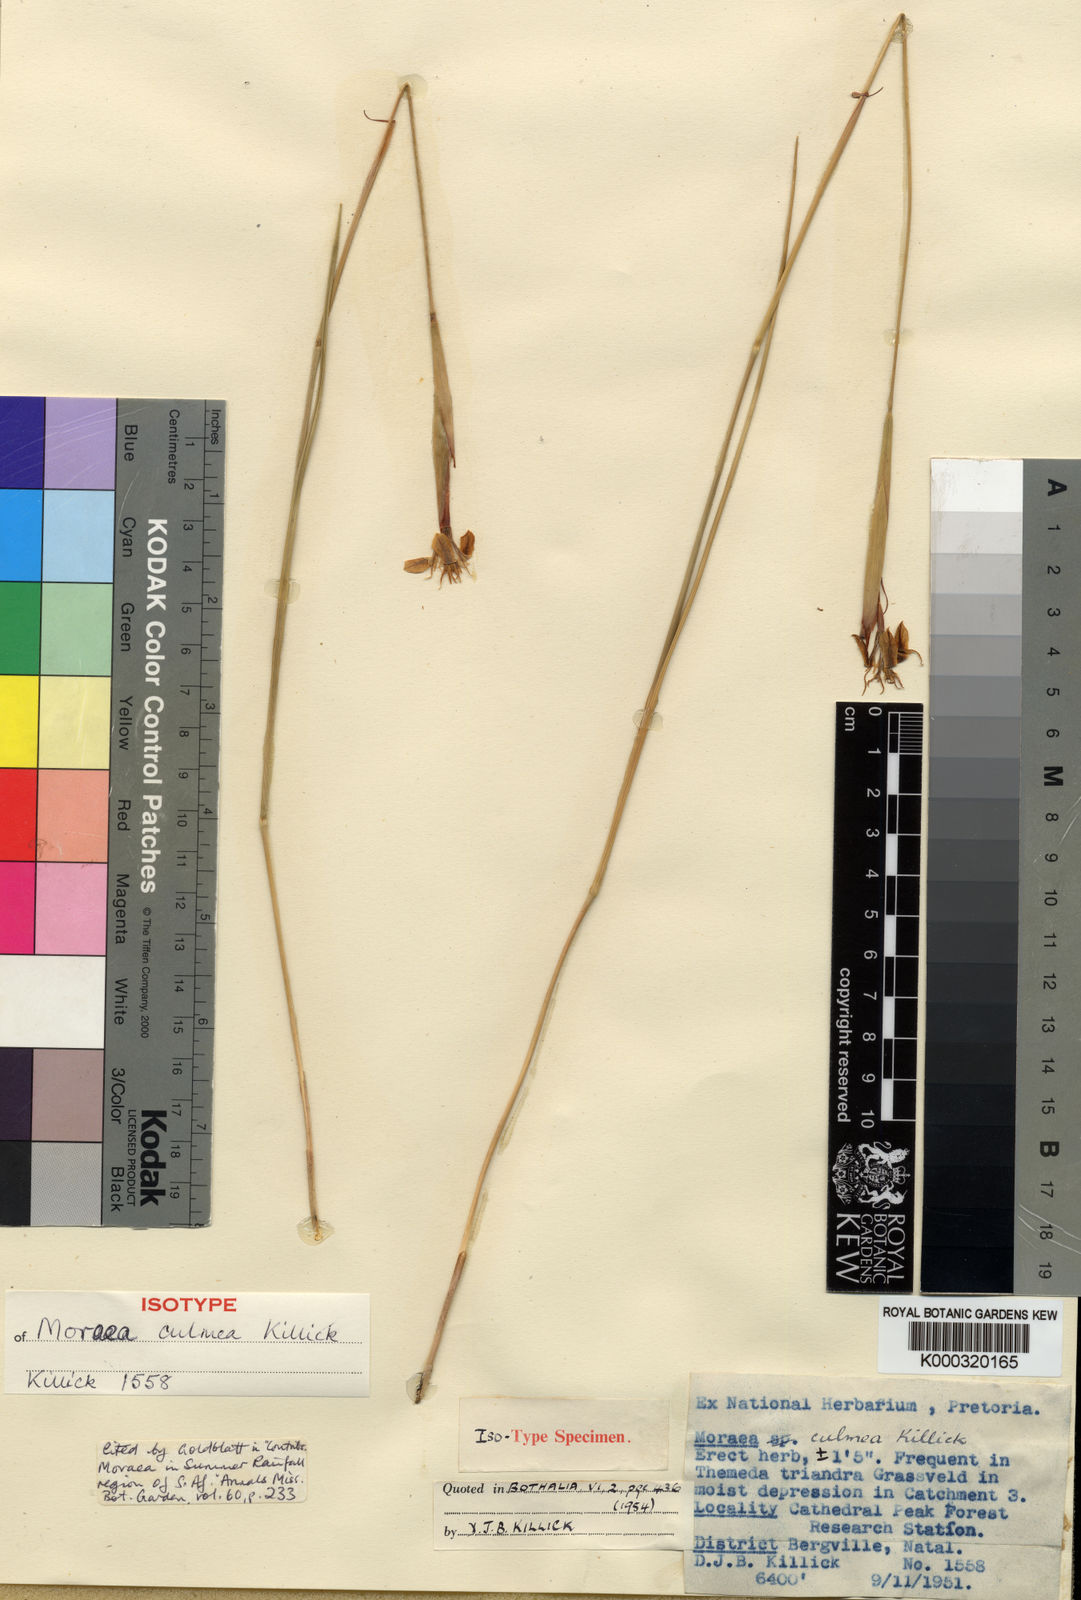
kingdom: Plantae
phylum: Tracheophyta
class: Liliopsida
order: Asparagales
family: Iridaceae
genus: Moraea
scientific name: Moraea trifida
